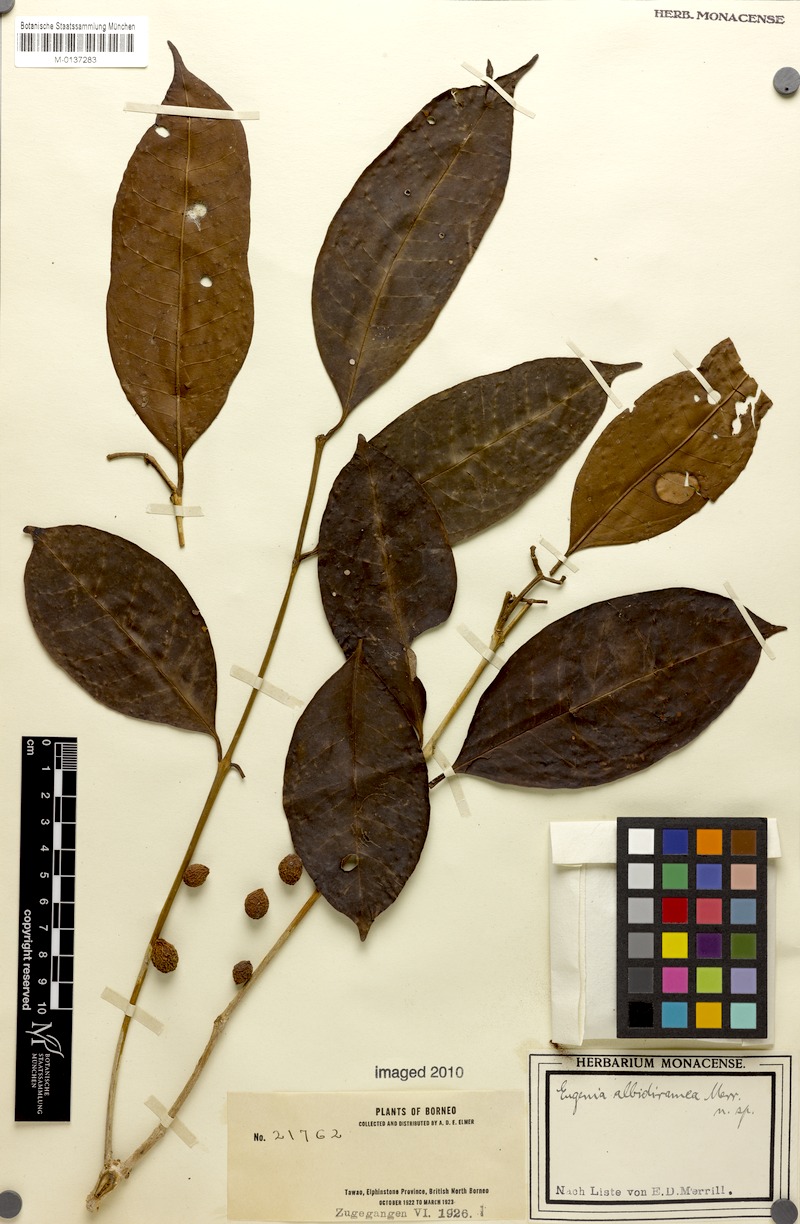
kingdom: Plantae
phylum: Tracheophyta
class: Magnoliopsida
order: Myrtales
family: Myrtaceae
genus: Syzygium
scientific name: Syzygium kunstleri
